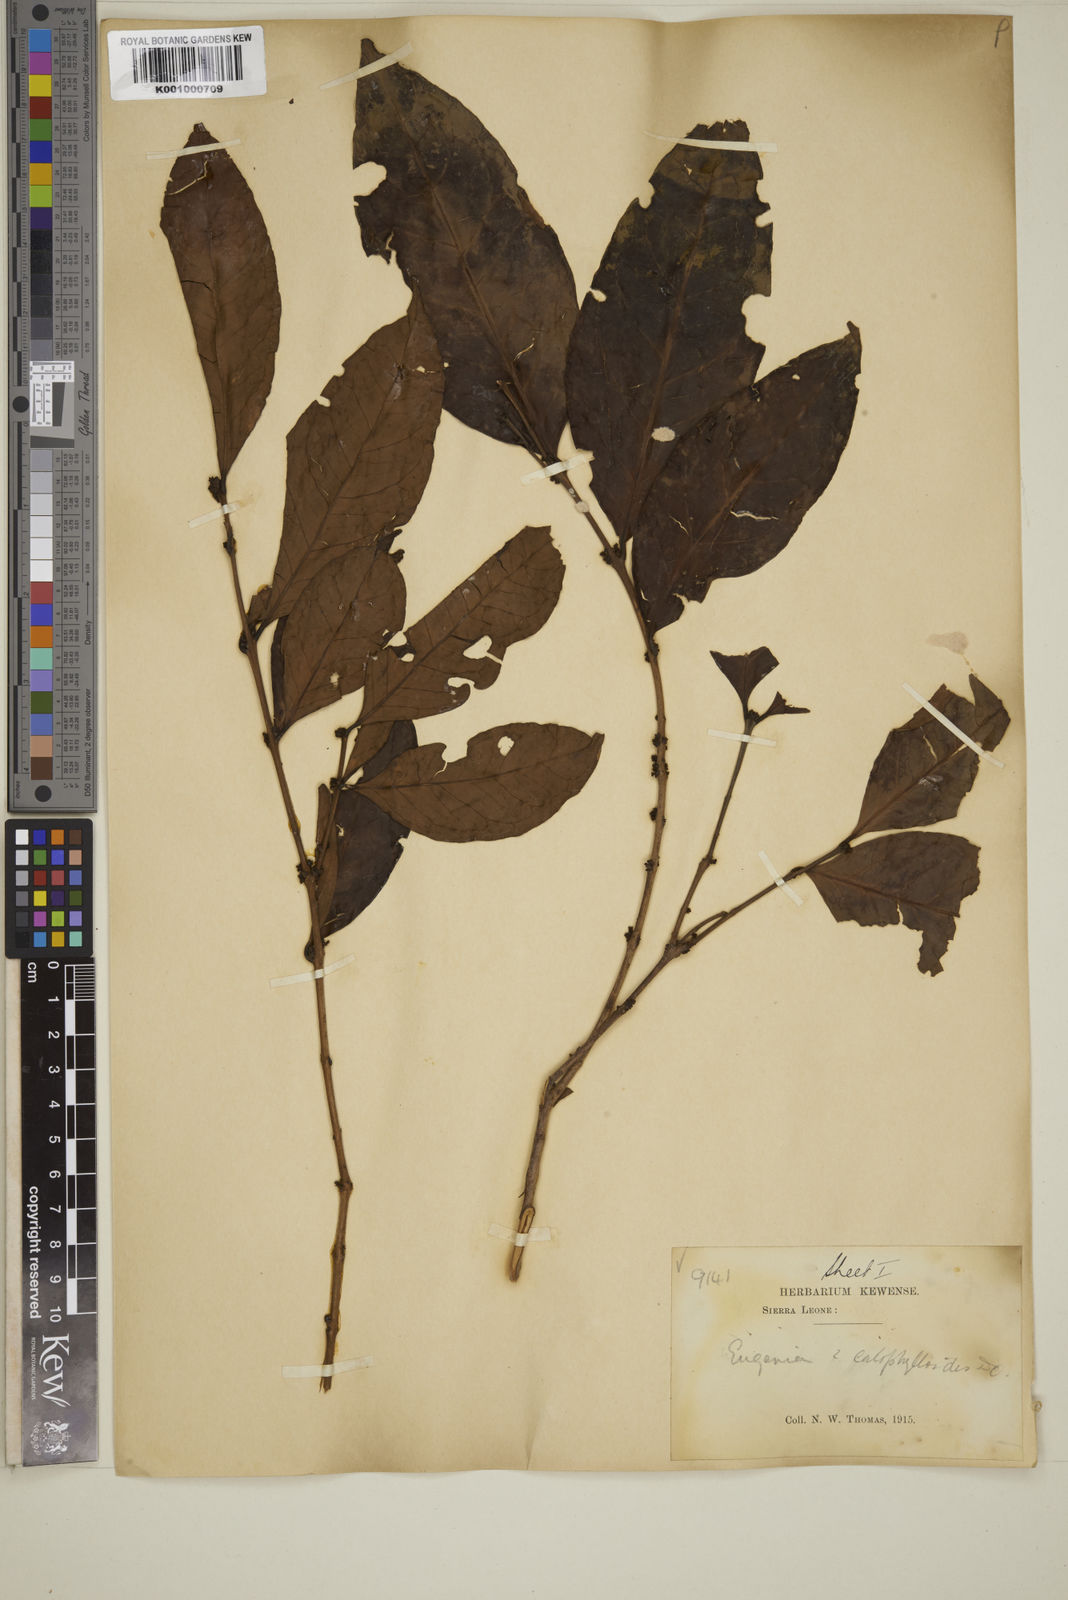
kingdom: Plantae
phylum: Tracheophyta
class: Magnoliopsida
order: Myrtales
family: Myrtaceae
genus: Eugenia
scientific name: Eugenia calophylloides
